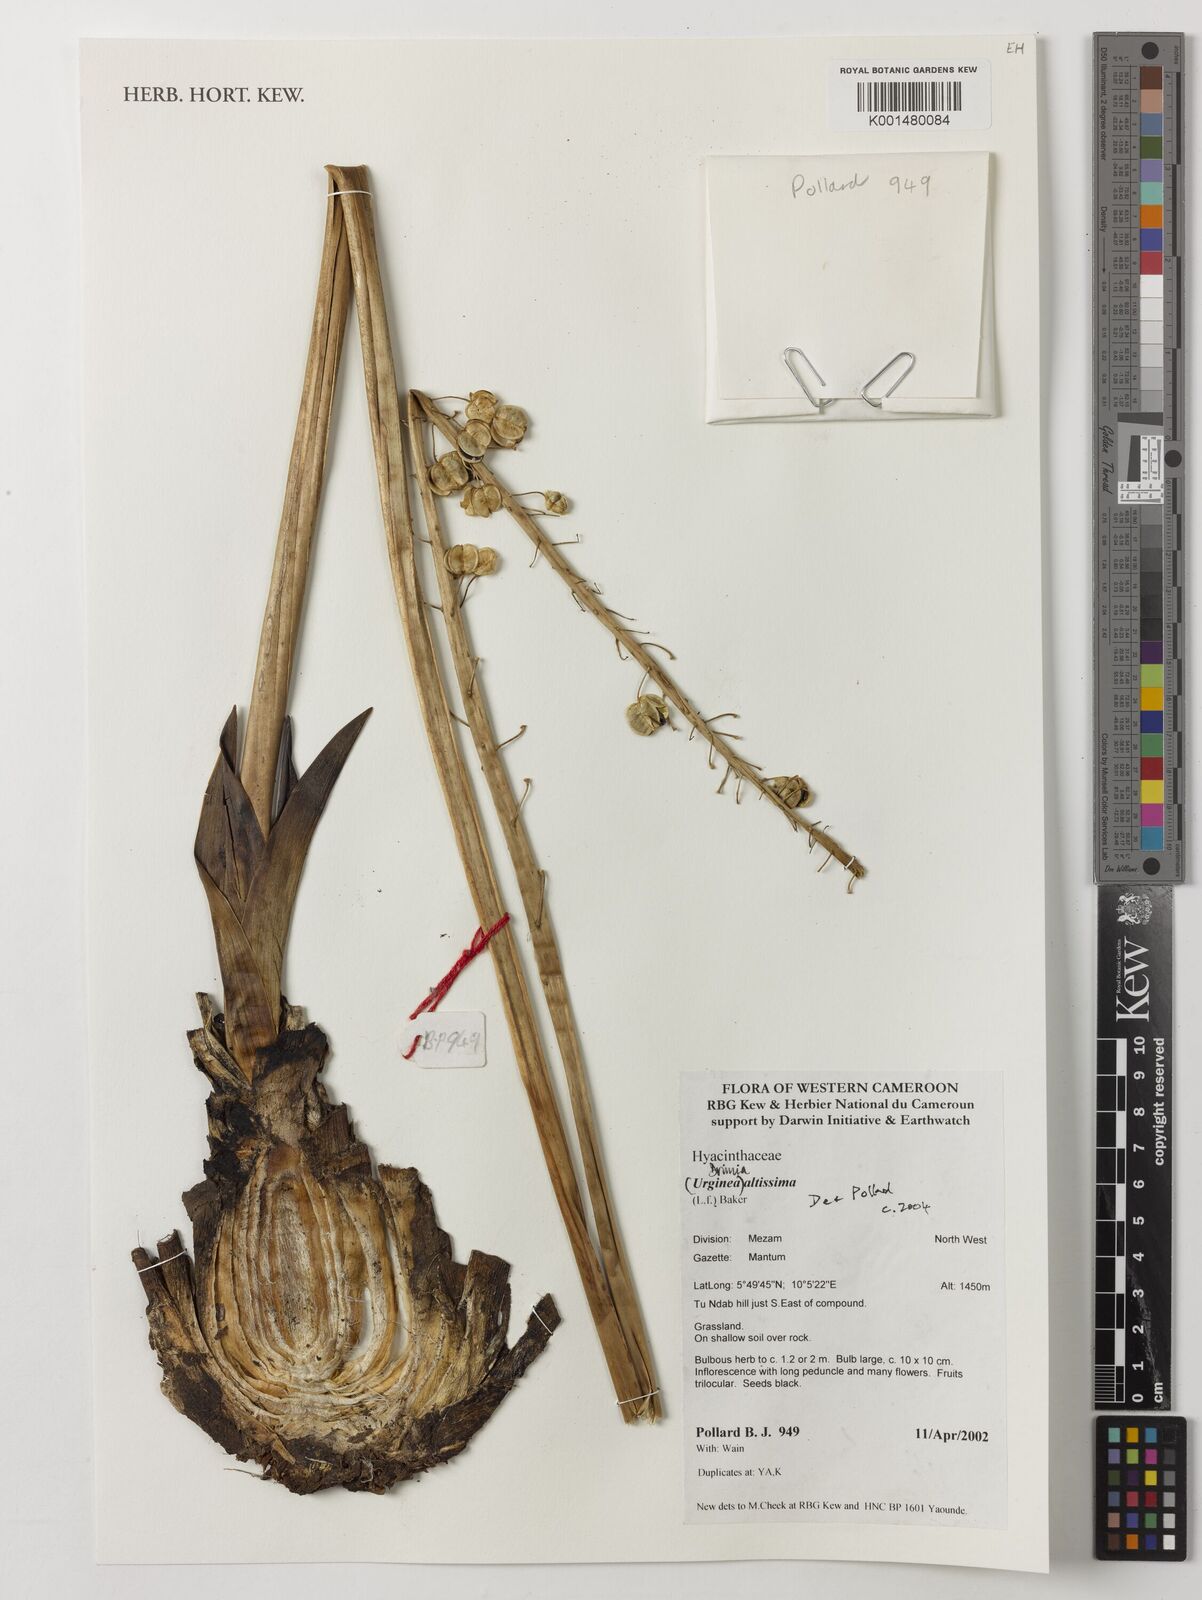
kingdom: Plantae
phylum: Tracheophyta
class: Liliopsida
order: Asparagales
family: Asparagaceae
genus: Drimia
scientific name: Drimia altissima
